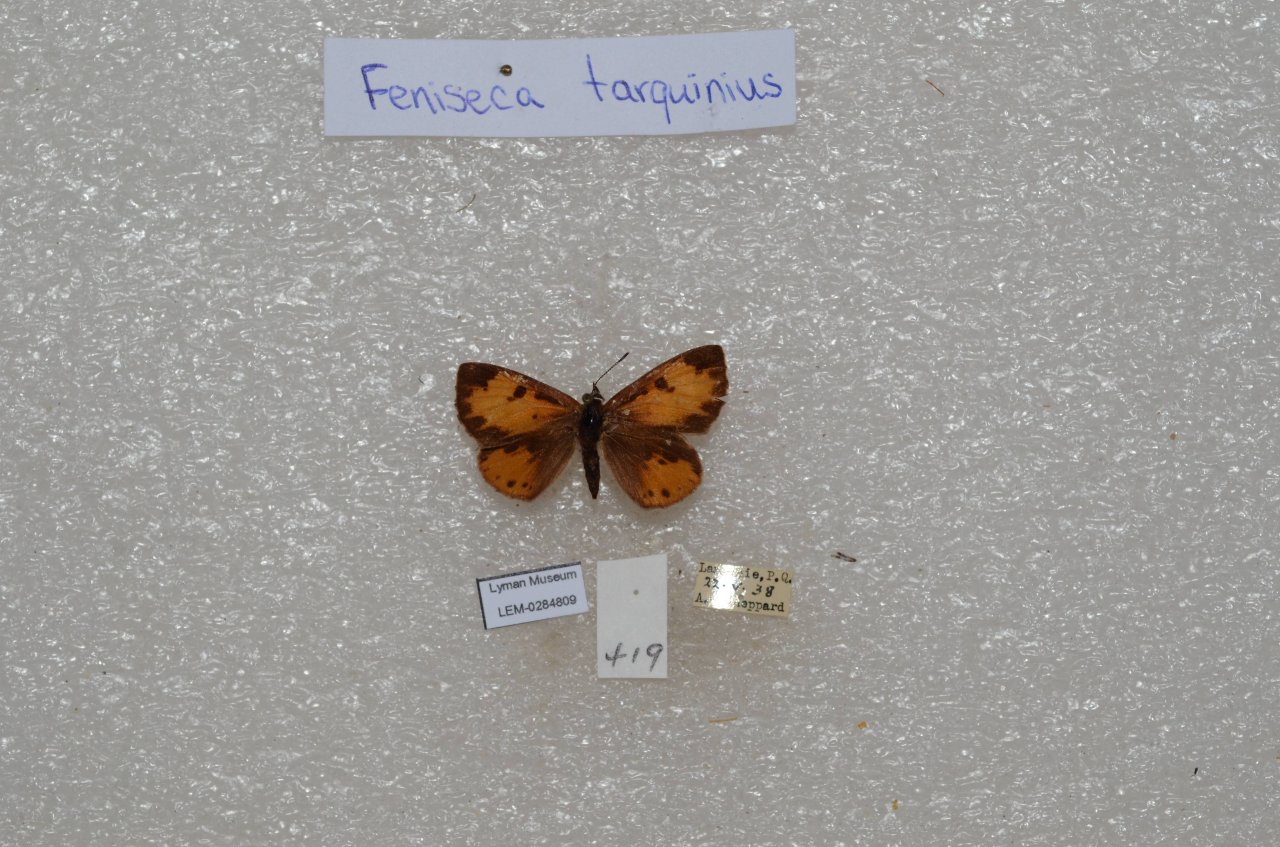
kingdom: Animalia
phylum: Arthropoda
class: Insecta
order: Lepidoptera
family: Lycaenidae
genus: Feniseca
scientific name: Feniseca tarquinius
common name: Harvester
